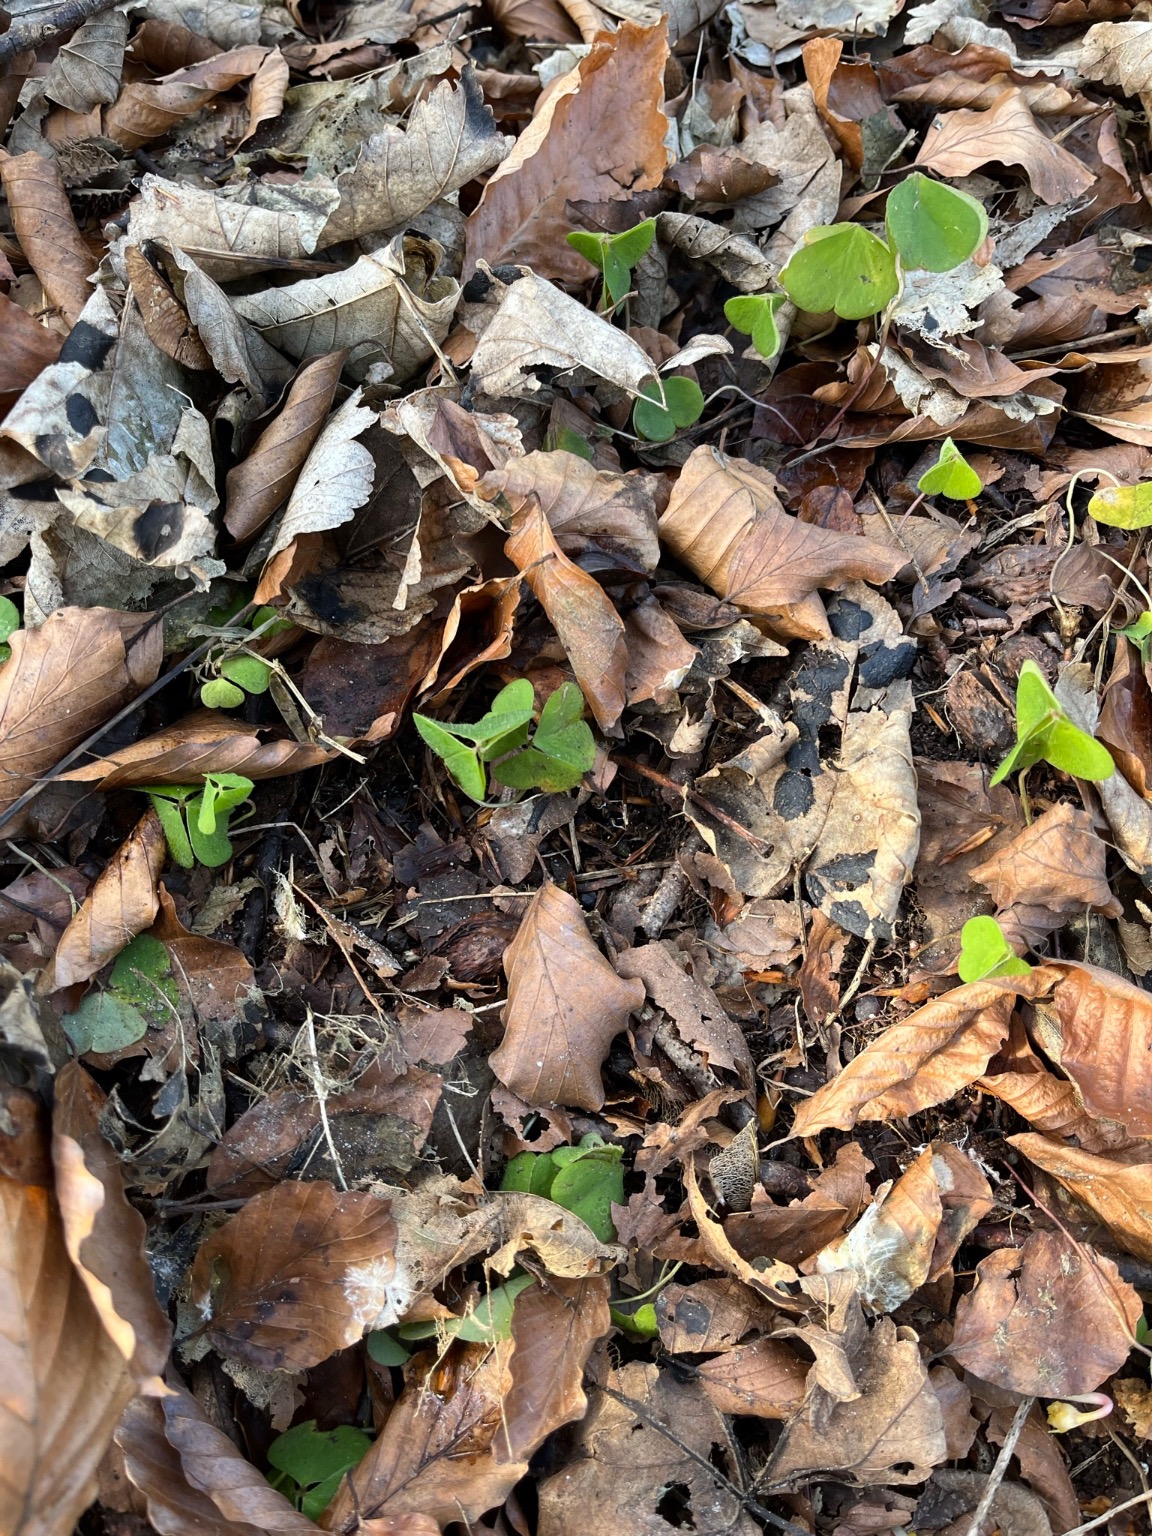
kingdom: Plantae
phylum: Tracheophyta
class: Magnoliopsida
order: Oxalidales
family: Oxalidaceae
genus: Oxalis
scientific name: Oxalis acetosella
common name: Skovsyre
